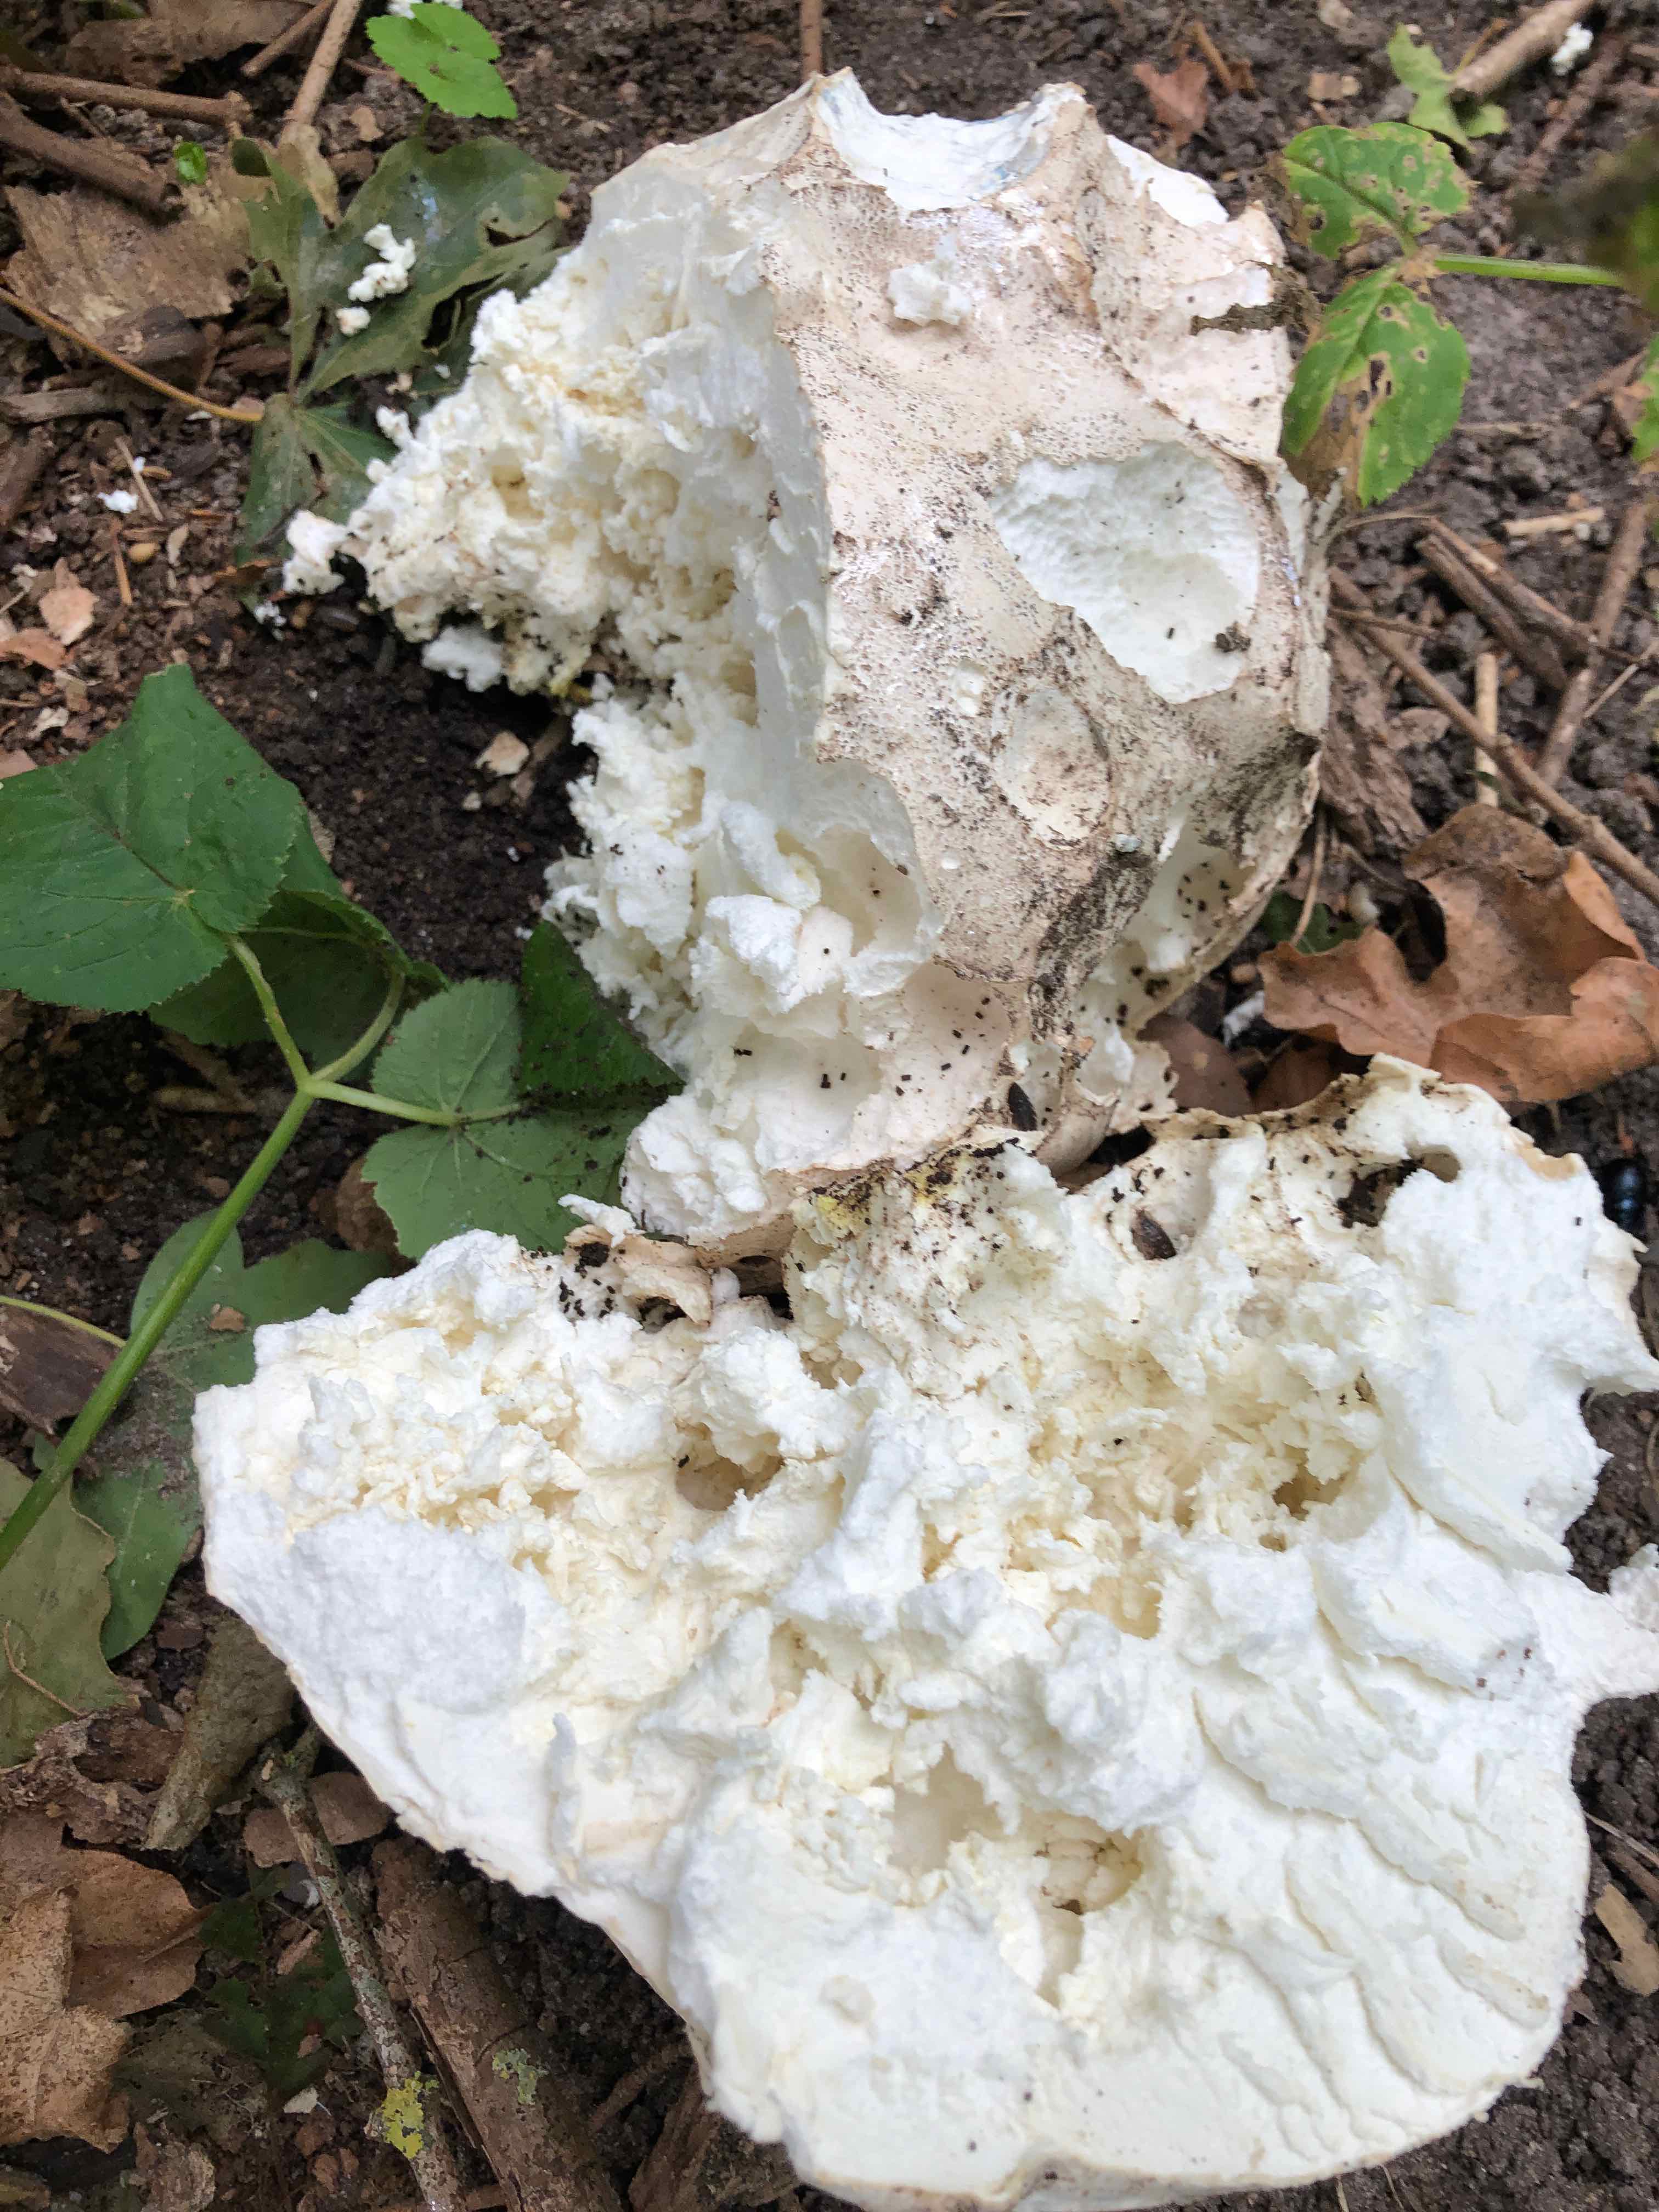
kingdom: Fungi
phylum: Basidiomycota
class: Agaricomycetes
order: Agaricales
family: Lycoperdaceae
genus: Calvatia
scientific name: Calvatia gigantea
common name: kæmpestøvbold
